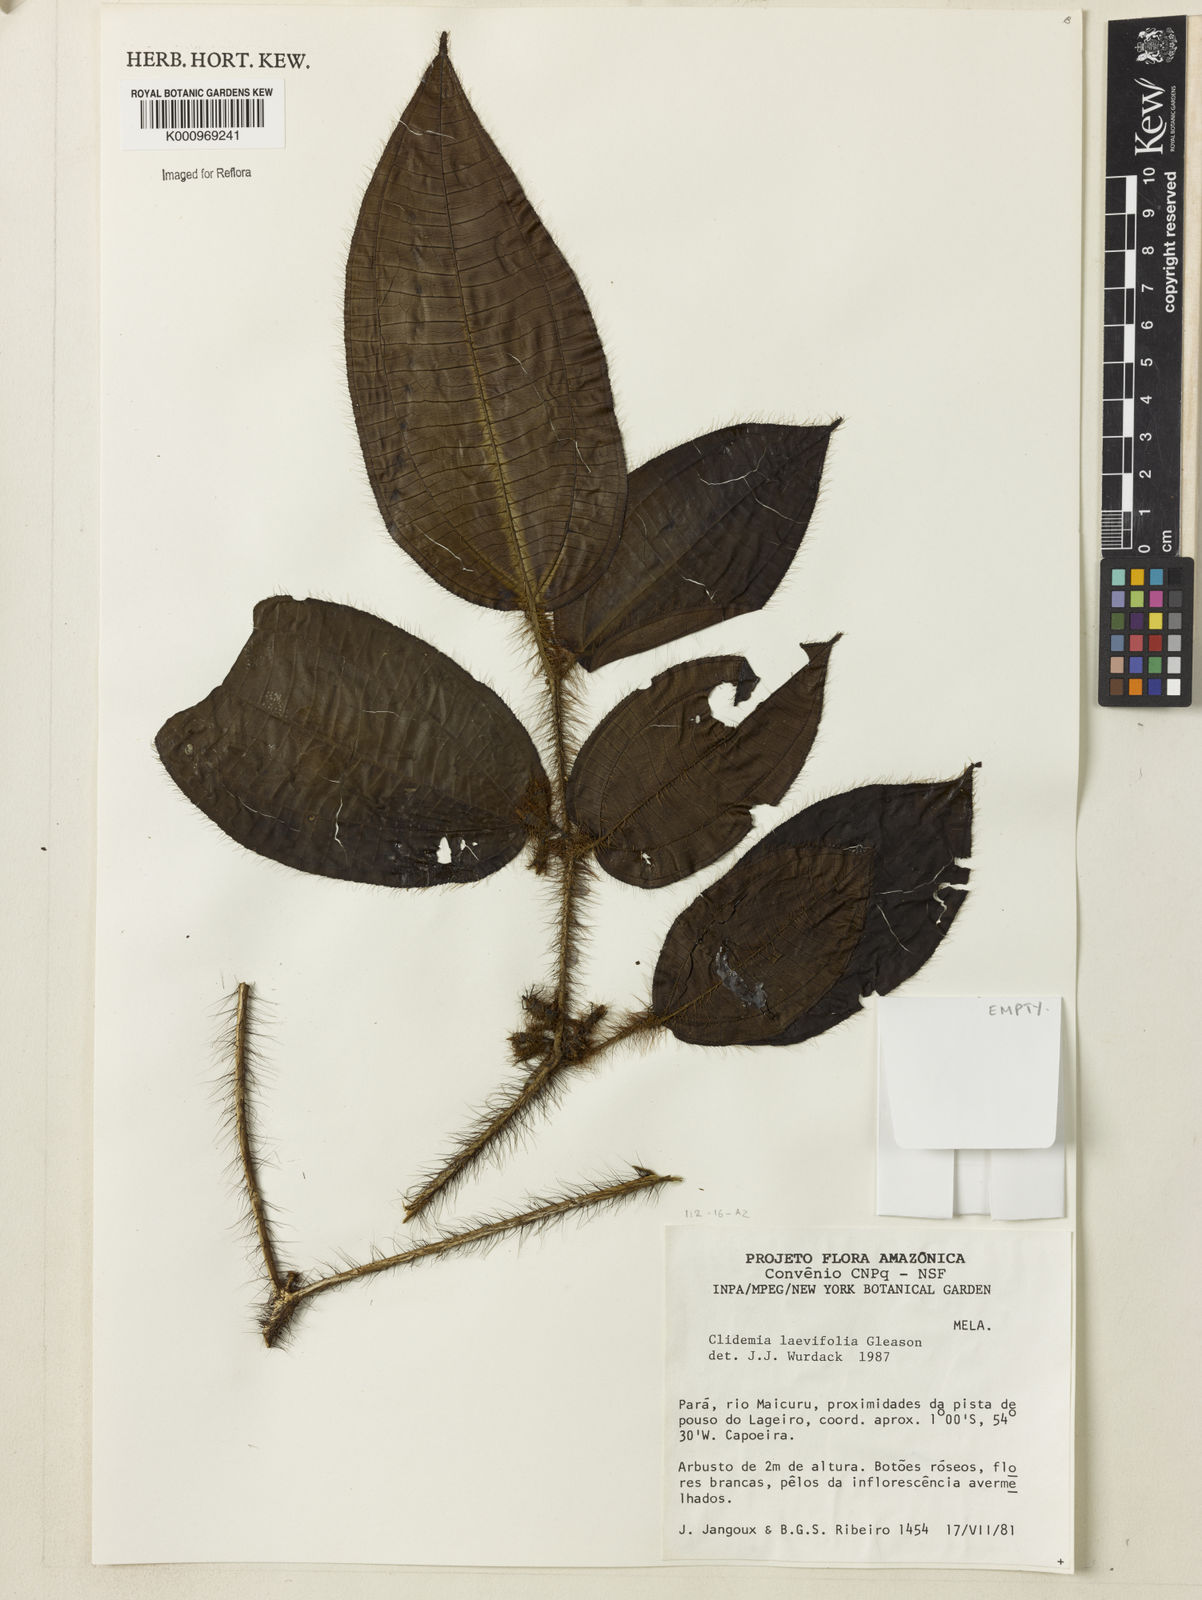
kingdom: Plantae
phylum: Tracheophyta
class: Magnoliopsida
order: Myrtales
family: Melastomataceae
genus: Miconia
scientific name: Miconia
